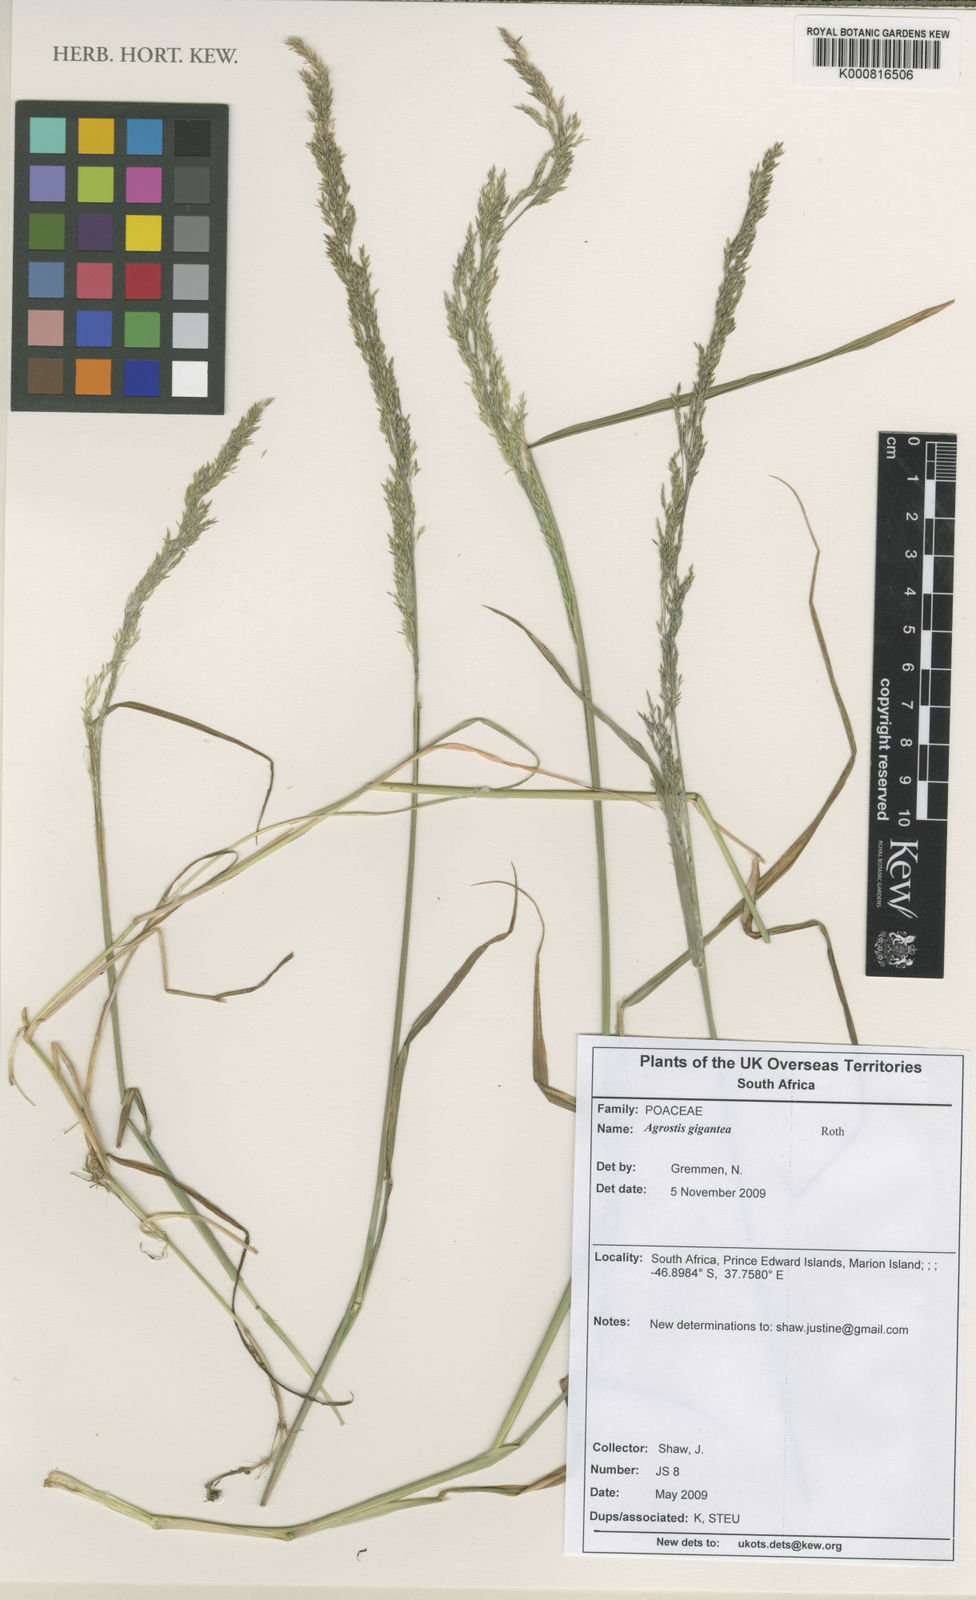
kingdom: Plantae
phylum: Tracheophyta
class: Liliopsida
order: Poales
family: Poaceae
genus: Agrostis
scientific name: Agrostis gigantea
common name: Black bent
